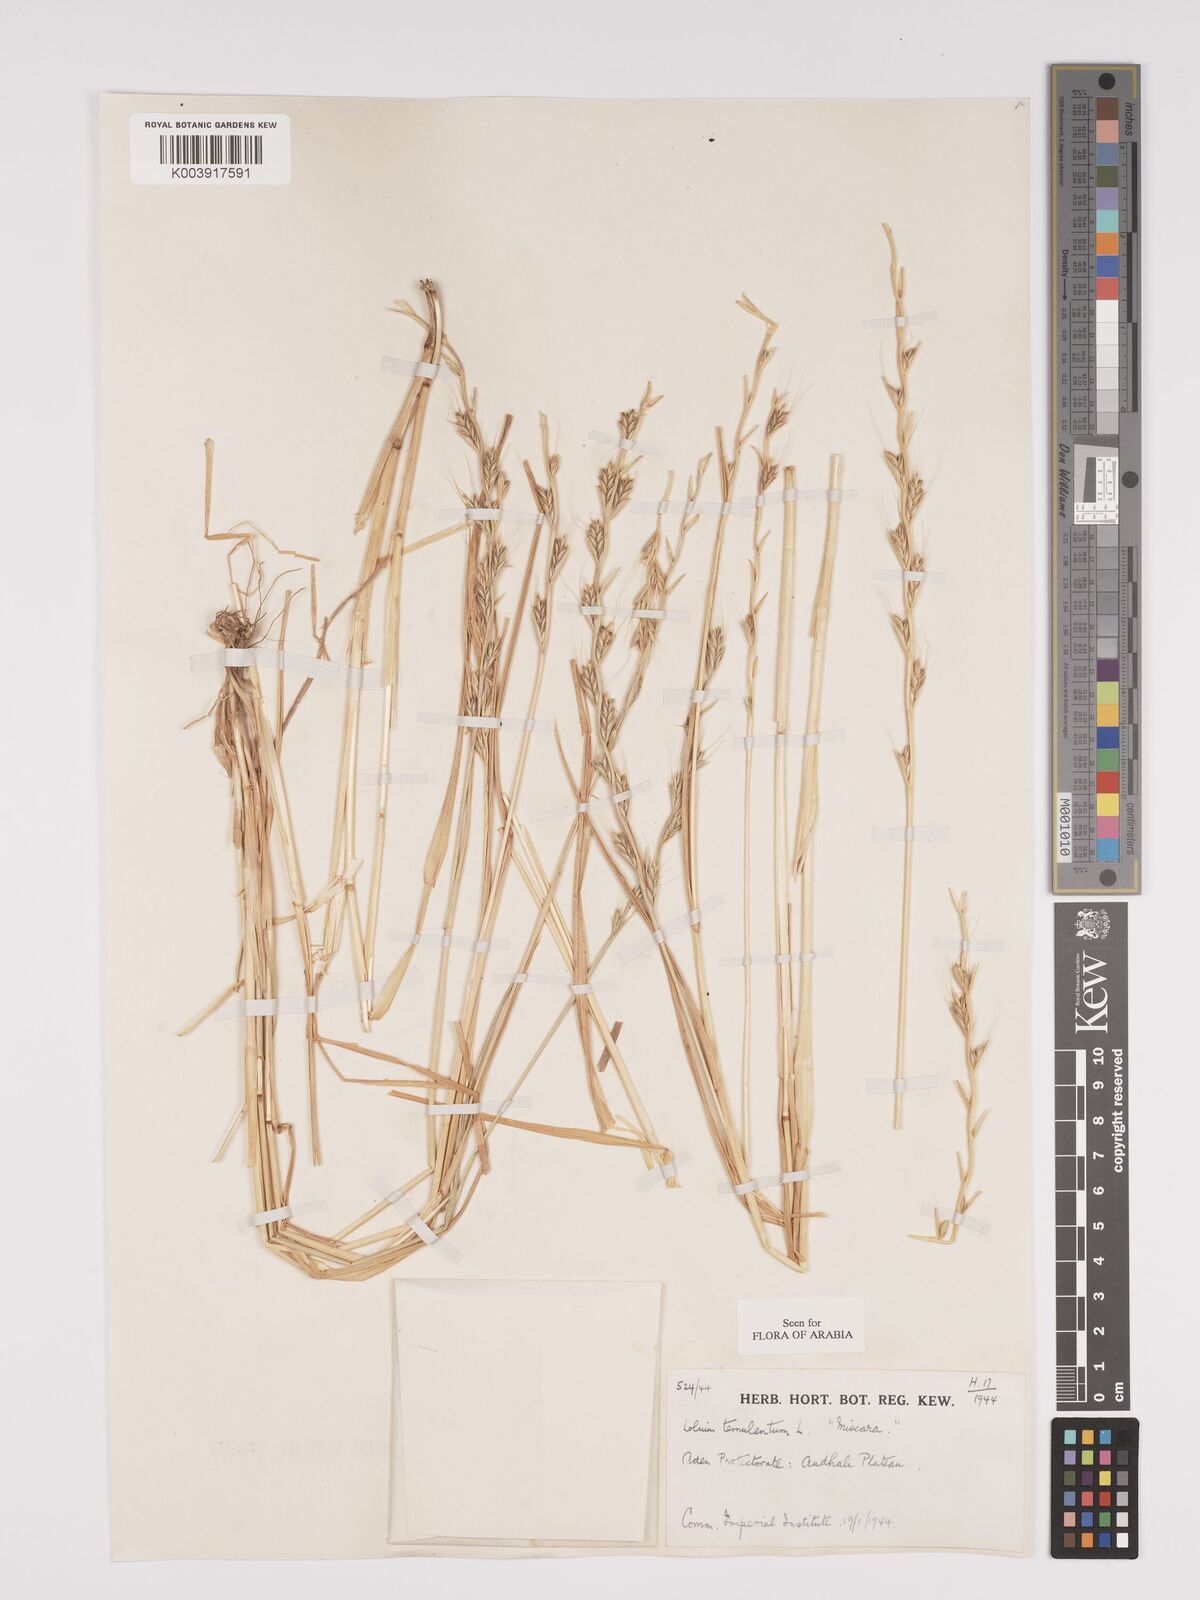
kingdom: Plantae
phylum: Tracheophyta
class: Liliopsida
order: Poales
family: Poaceae
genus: Lolium
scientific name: Lolium temulentum
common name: Darnel
